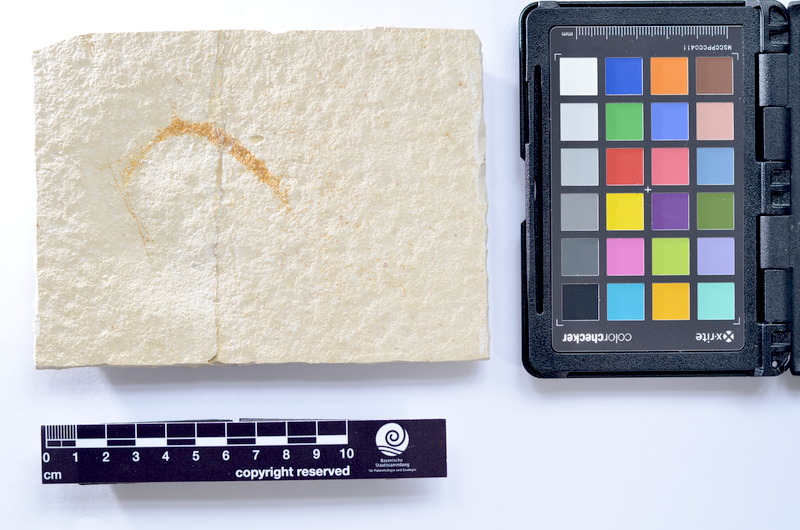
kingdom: Animalia
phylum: Chordata
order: Elopiformes
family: Anaethalionidae
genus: Anaethalion
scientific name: Anaethalion knorri
